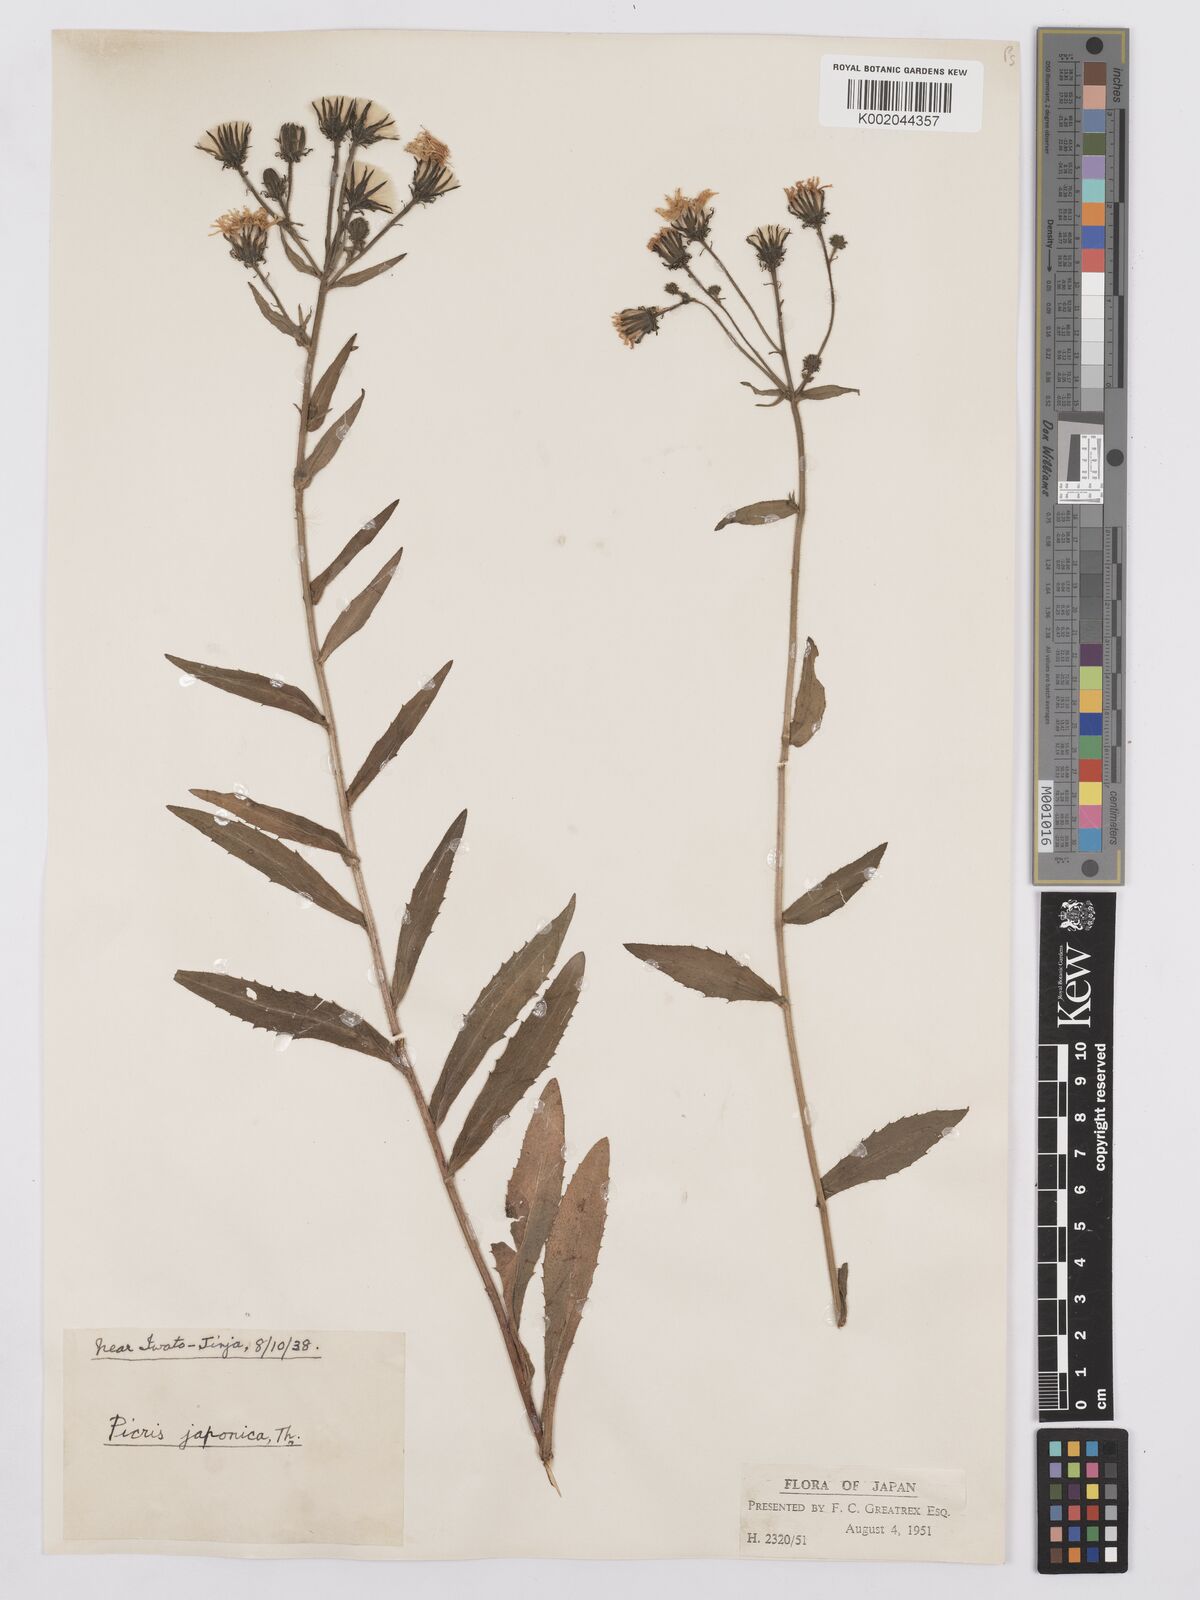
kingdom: Plantae
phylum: Tracheophyta
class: Magnoliopsida
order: Asterales
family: Asteraceae
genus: Picris
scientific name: Picris hieracioides
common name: Hawkweed oxtongue
